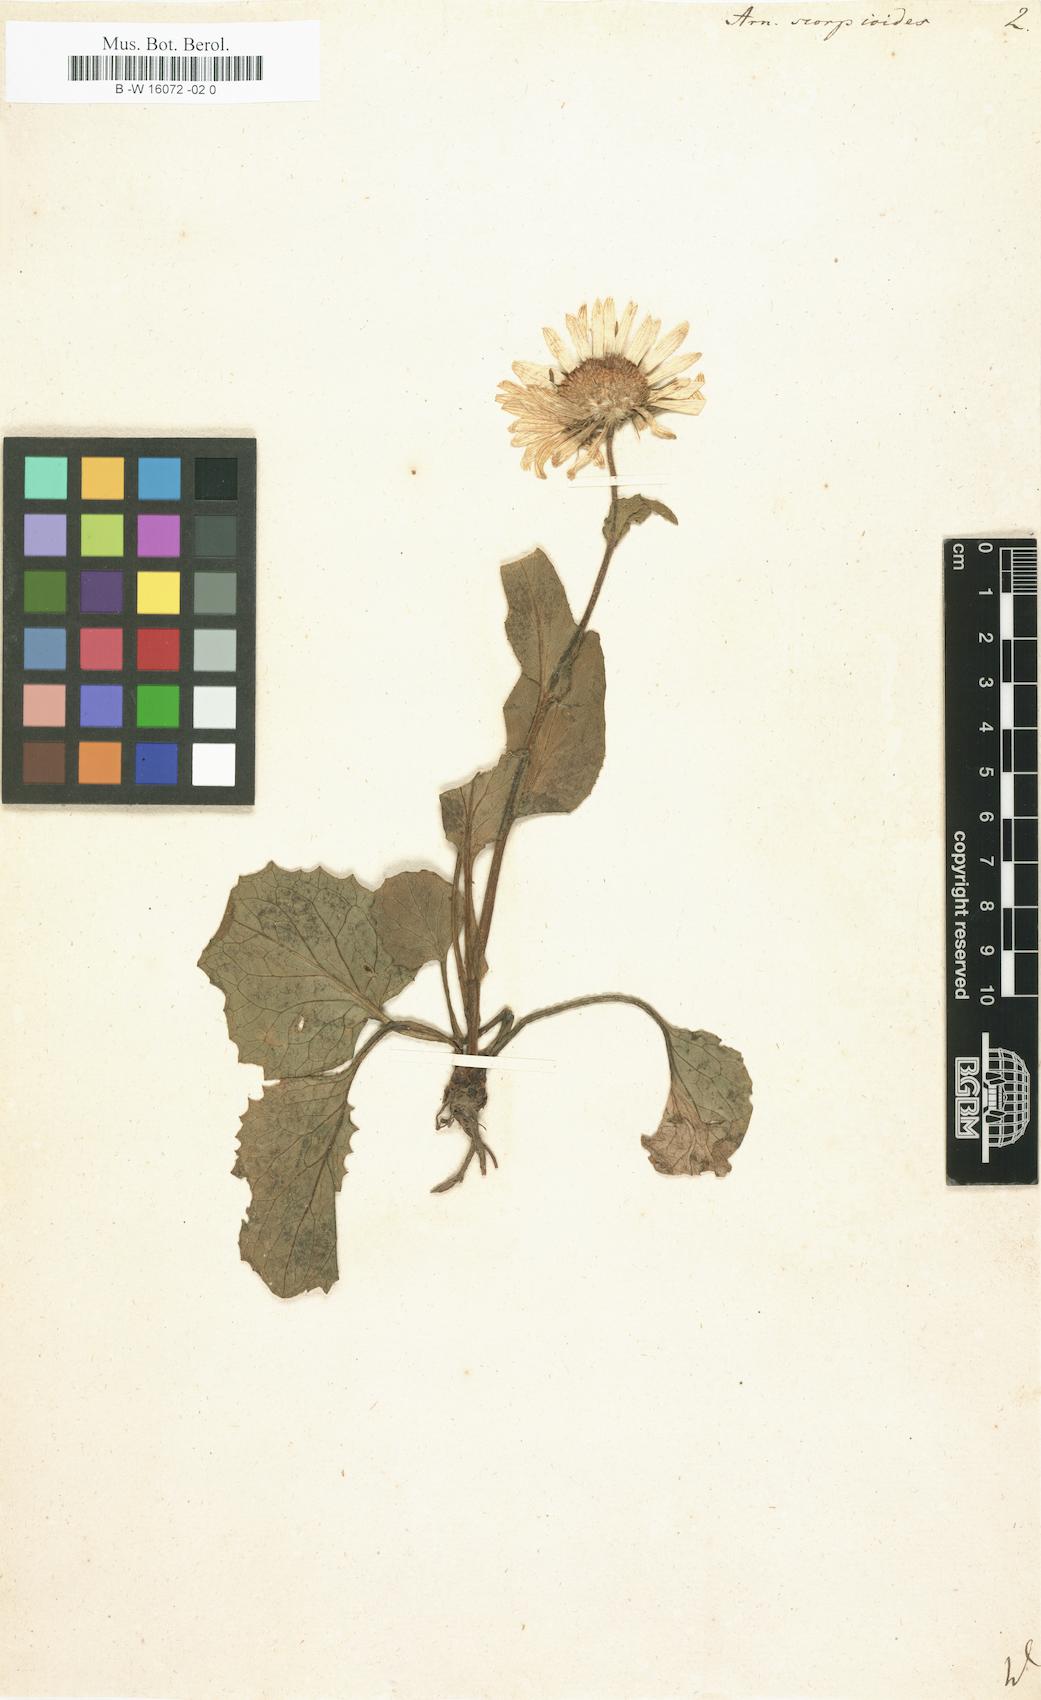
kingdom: Plantae
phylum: Tracheophyta
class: Magnoliopsida
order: Asterales
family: Asteraceae
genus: Doronicum
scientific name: Doronicum grandiflorum
